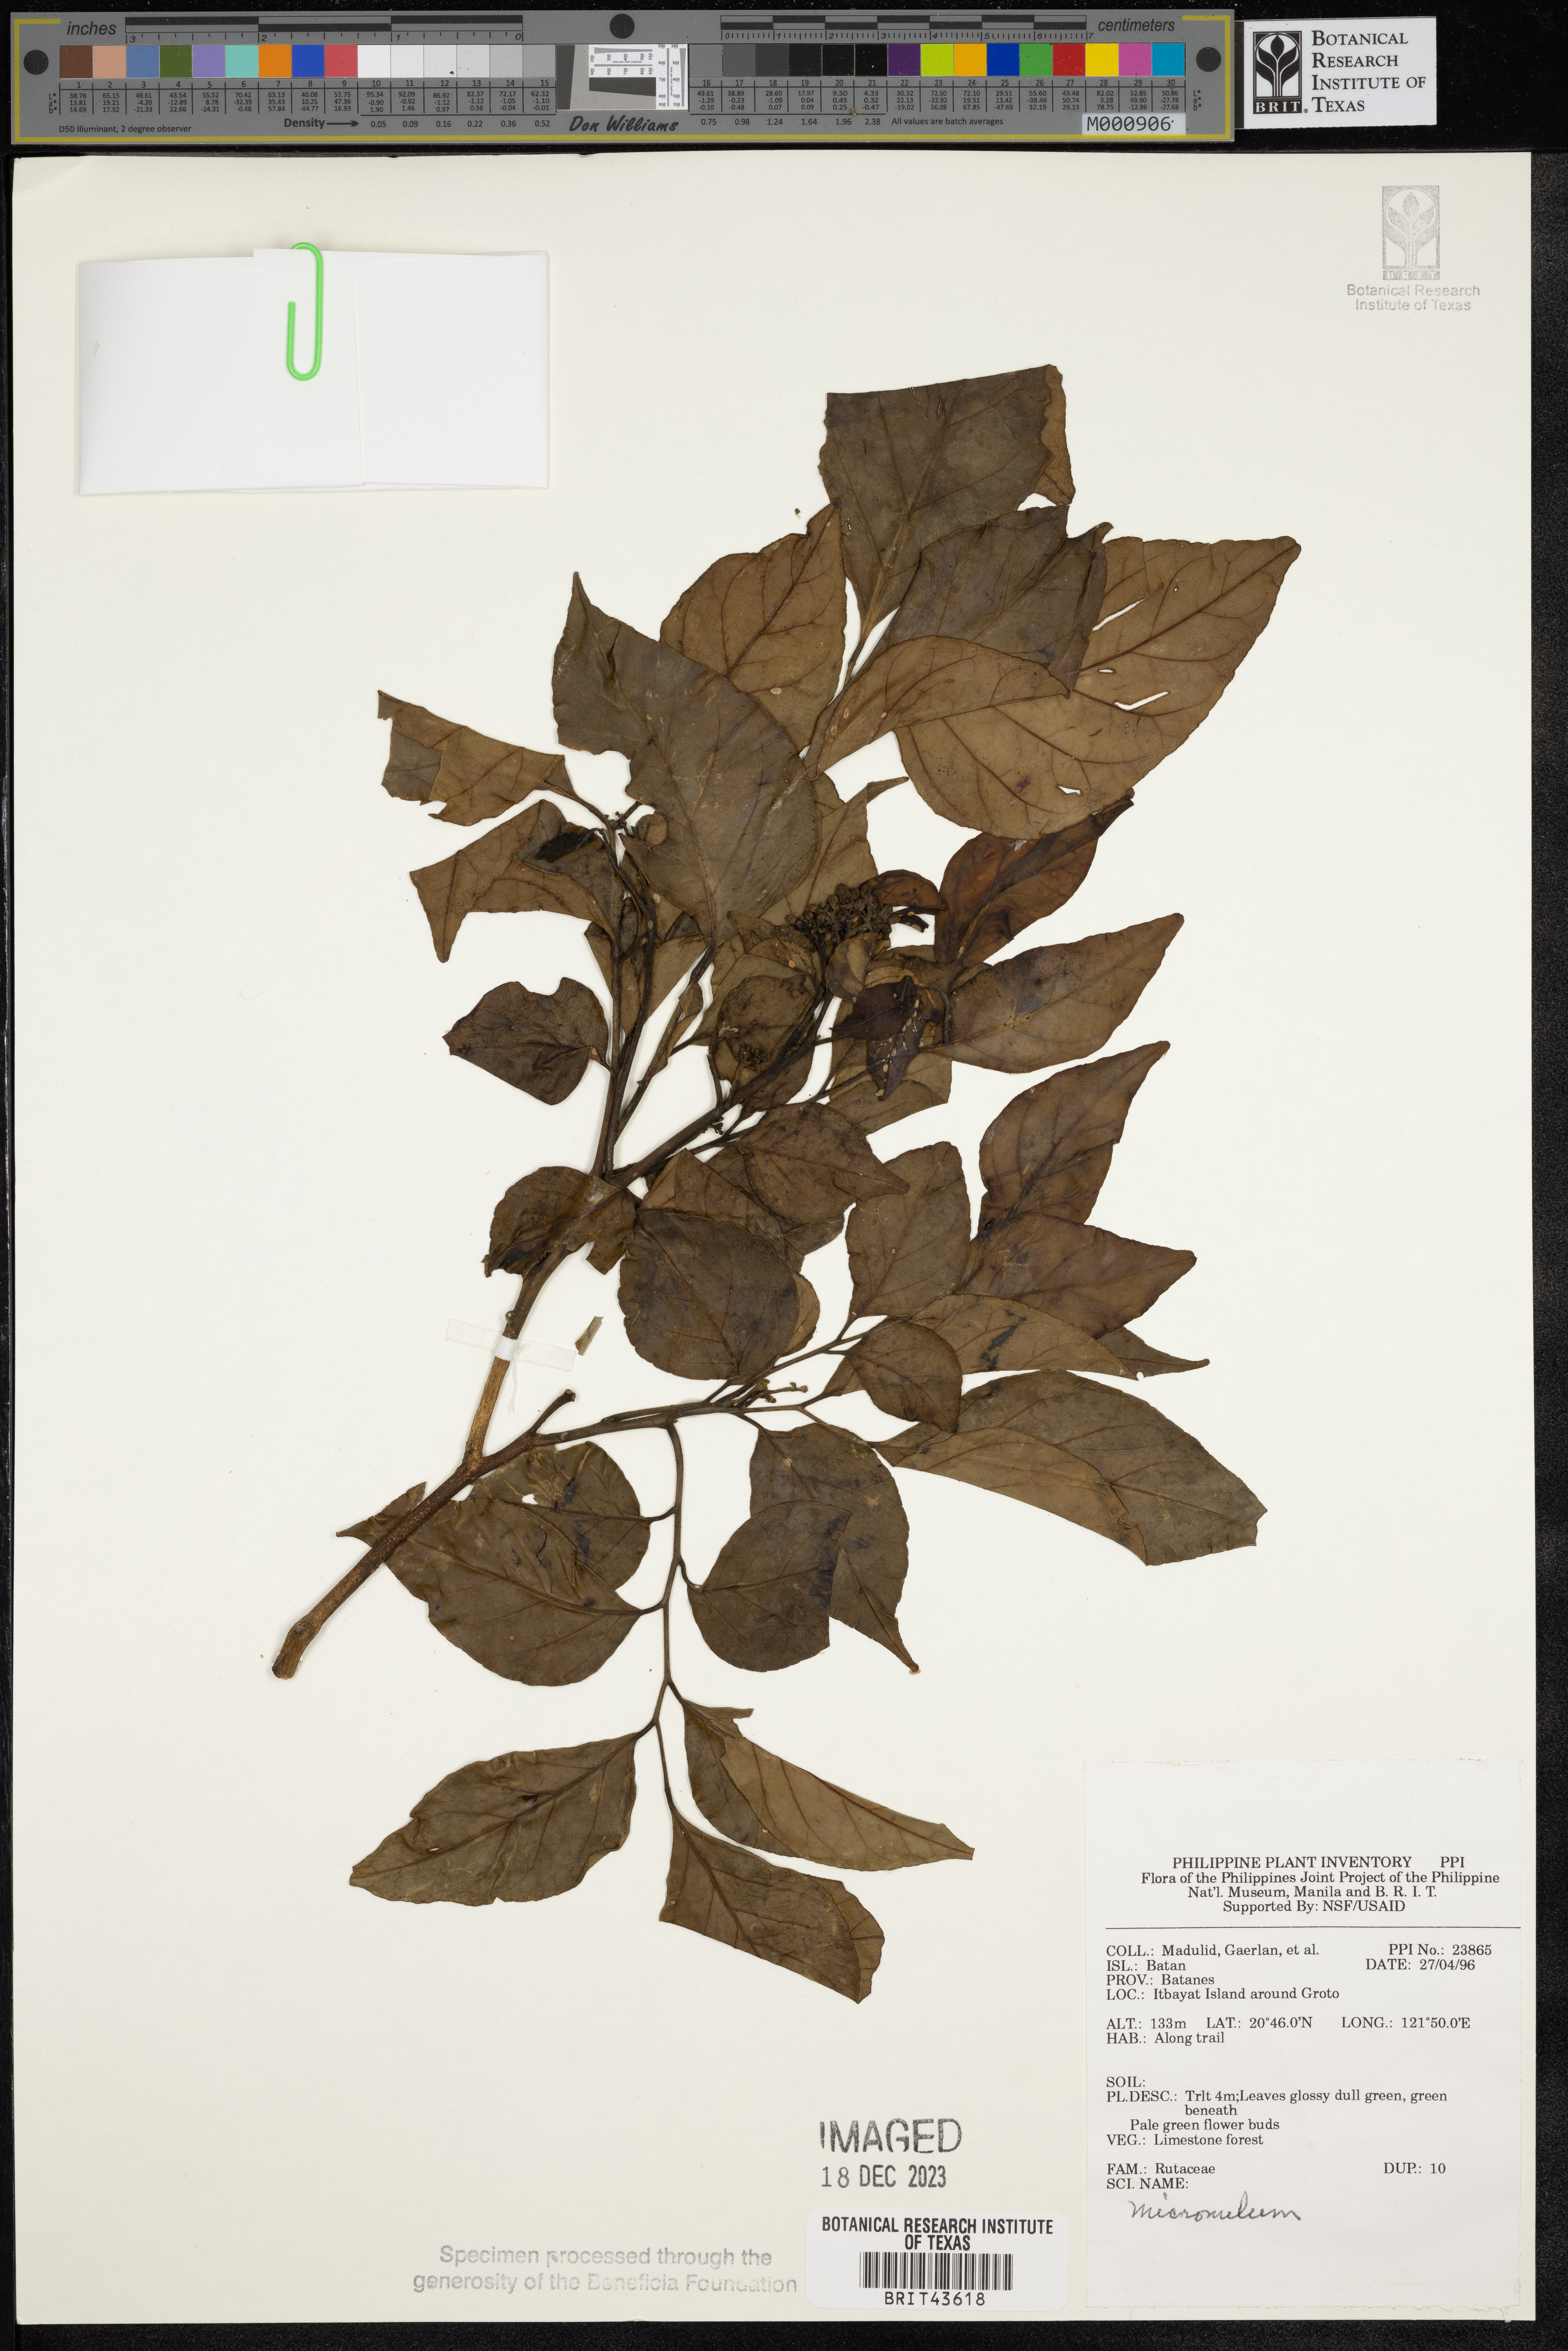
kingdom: Plantae
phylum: Tracheophyta
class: Magnoliopsida
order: Sapindales
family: Rutaceae
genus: Micromelum
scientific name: Micromelum
